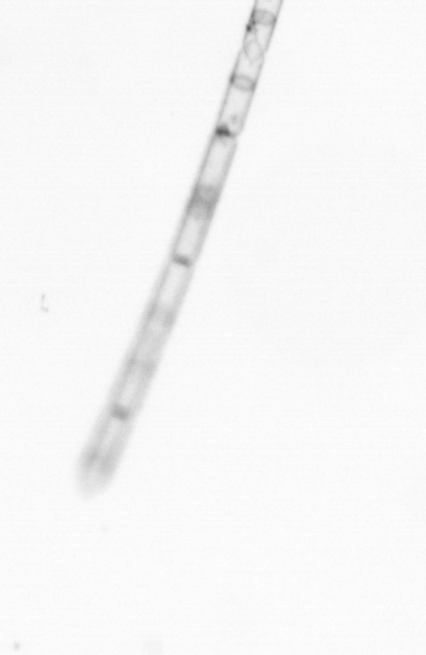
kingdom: Chromista
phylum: Ochrophyta
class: Bacillariophyceae
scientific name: Bacillariophyceae
